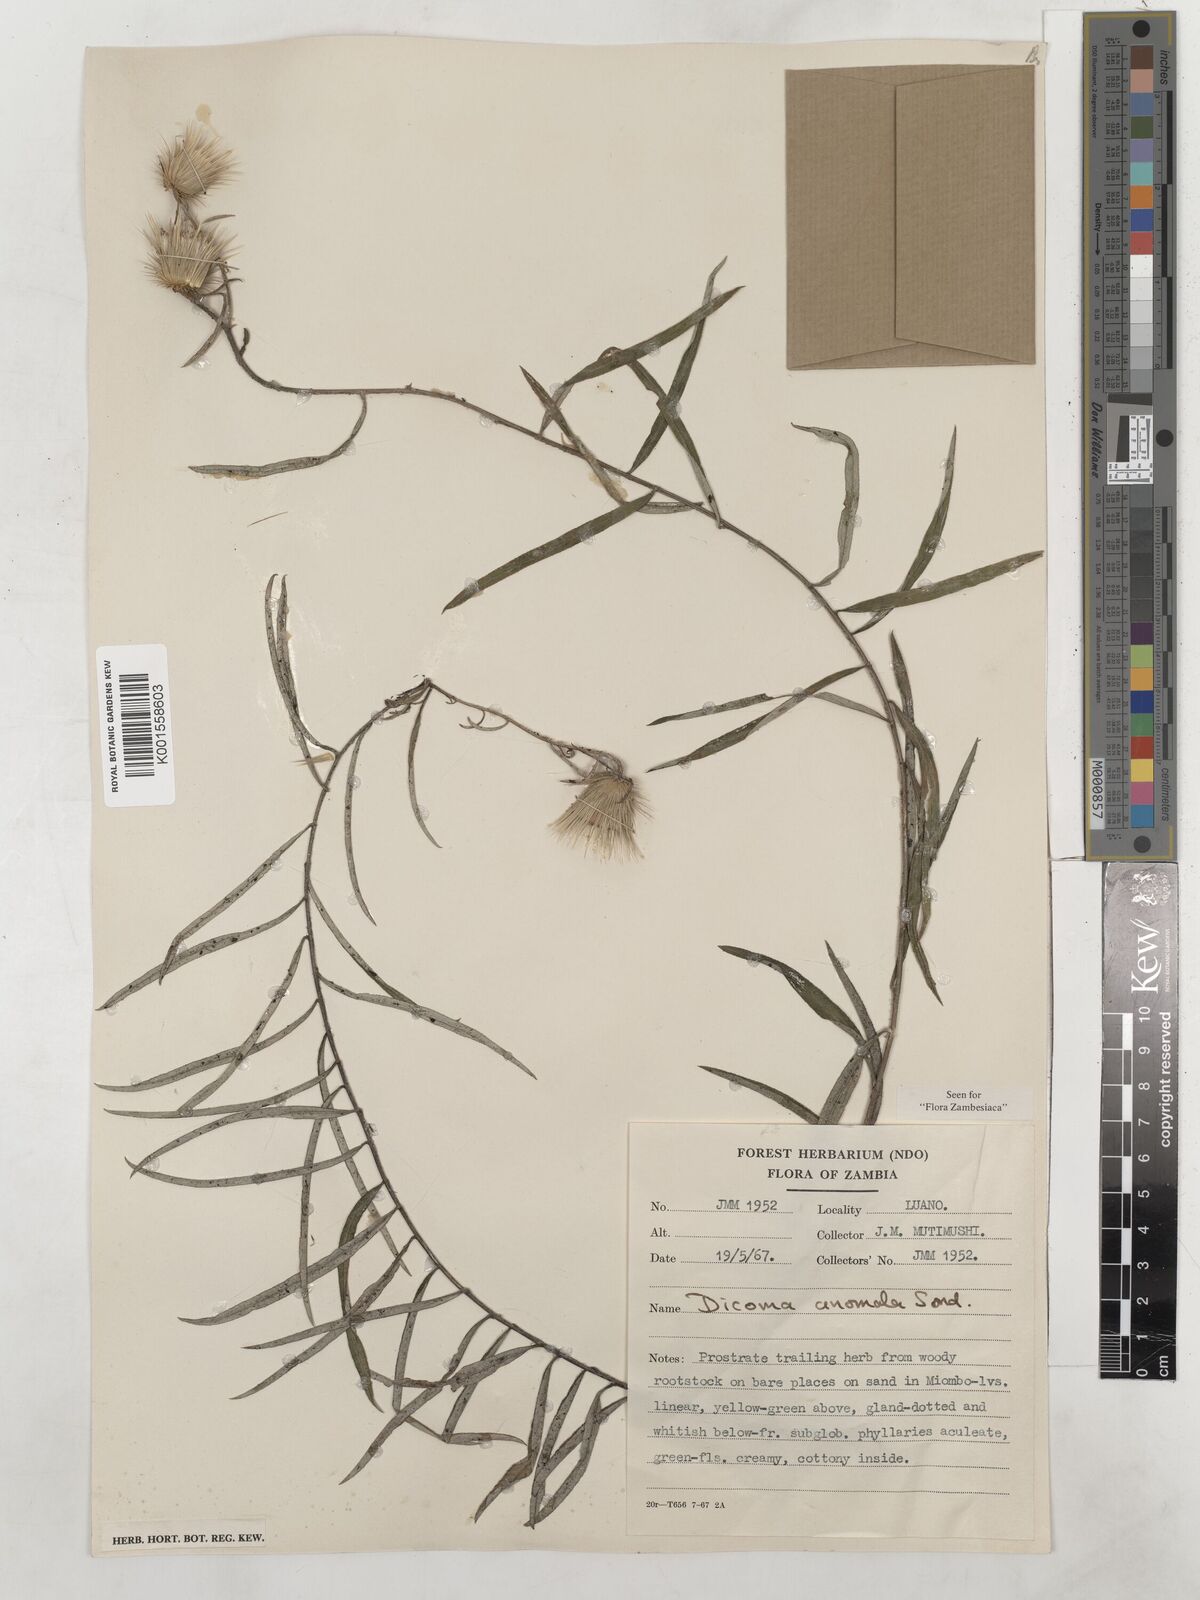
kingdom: Plantae
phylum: Tracheophyta
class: Magnoliopsida
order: Asterales
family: Asteraceae
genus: Dicoma
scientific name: Dicoma anomala
